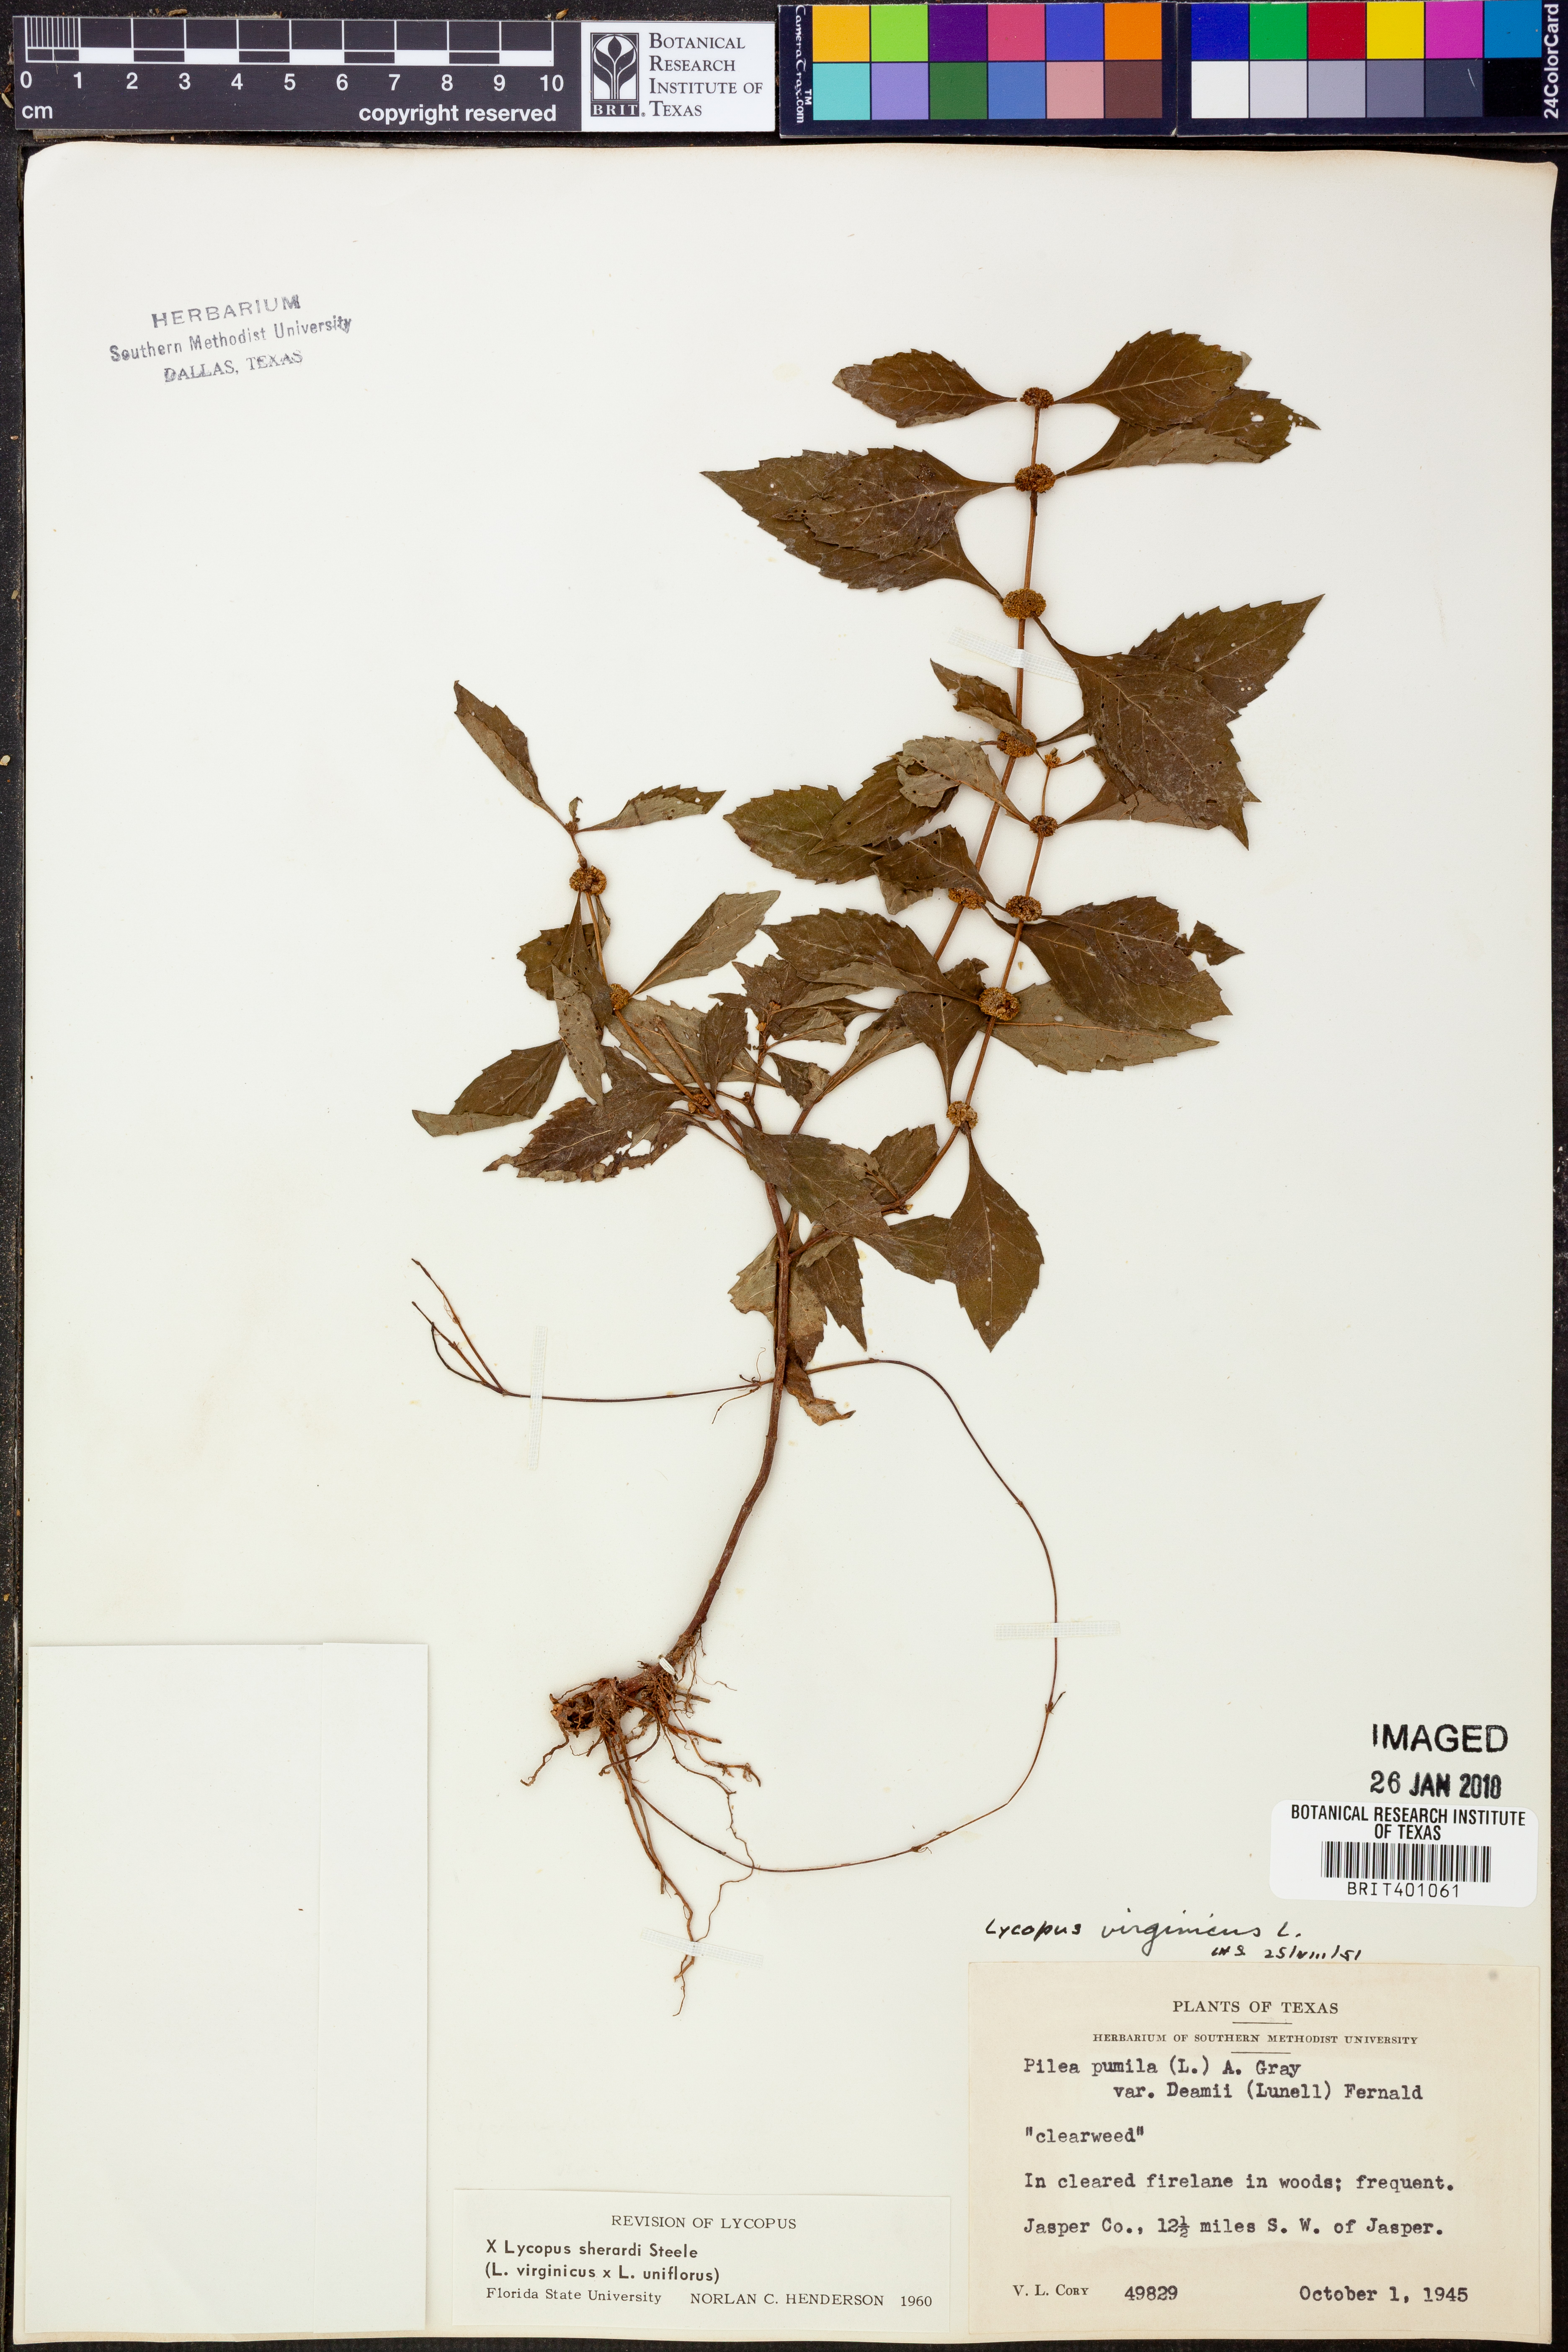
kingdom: Plantae
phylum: Tracheophyta
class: Magnoliopsida
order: Lamiales
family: Lamiaceae
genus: Lycopus
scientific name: Lycopus sherardii
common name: Sherard's water-horehound
